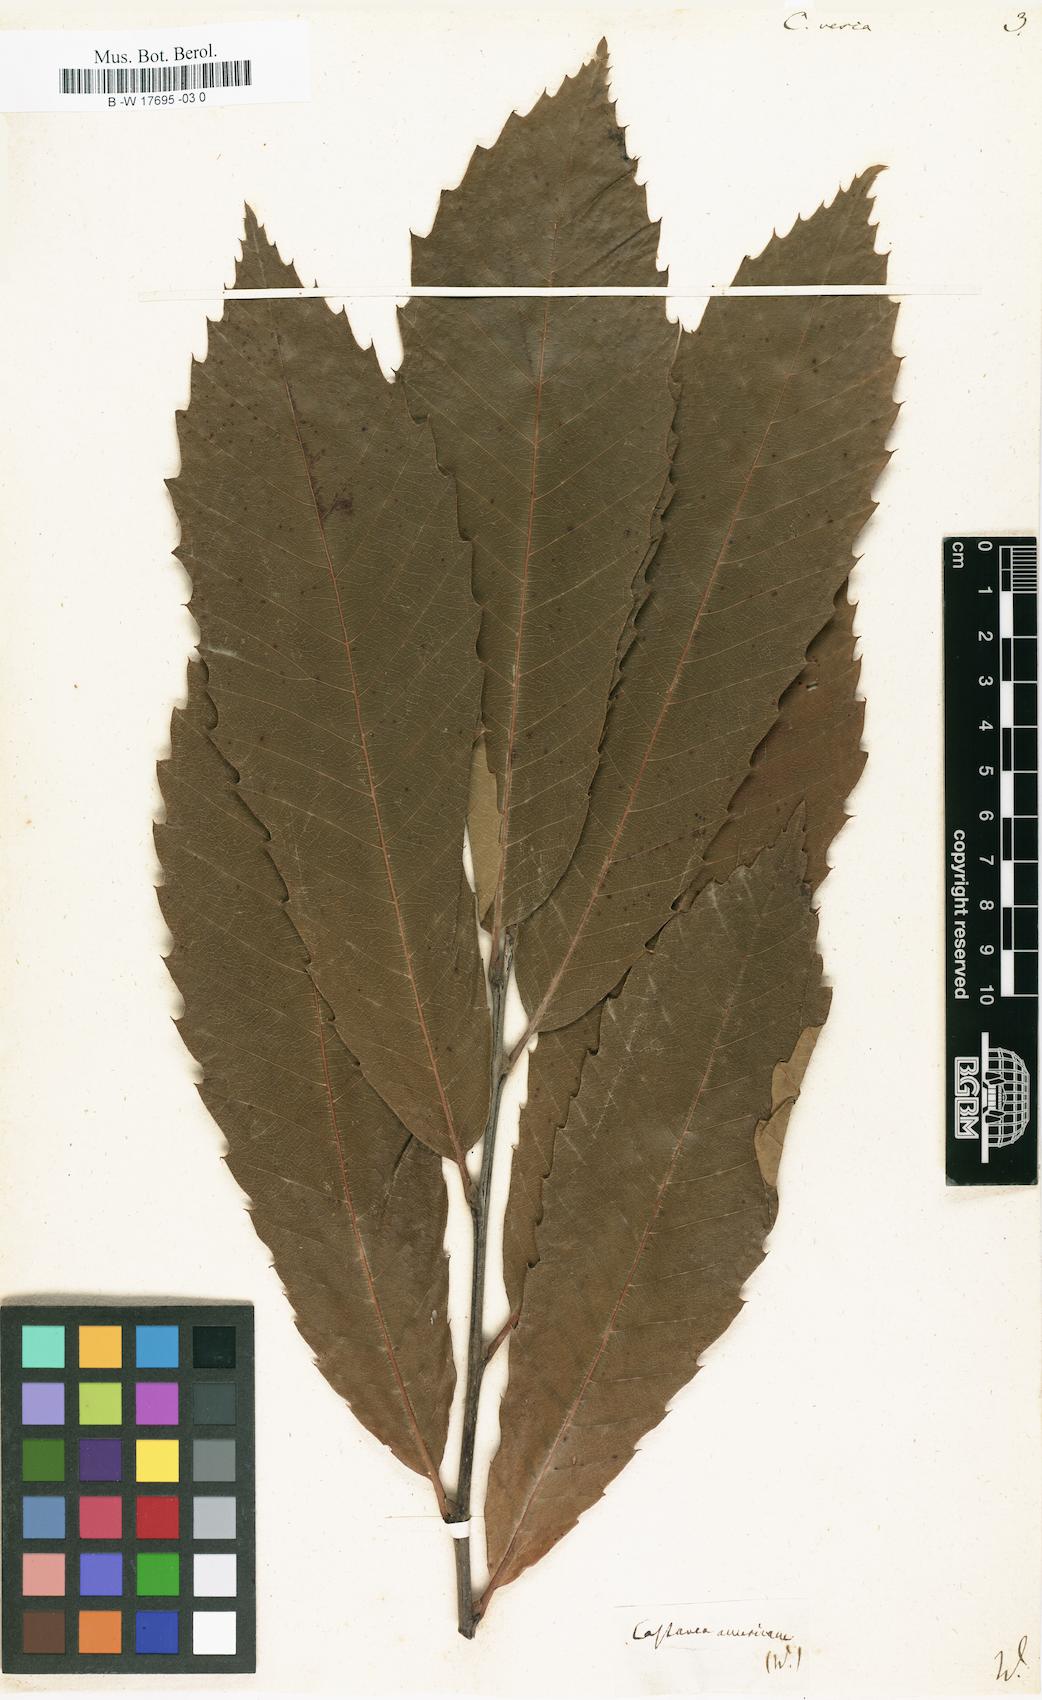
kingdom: Plantae
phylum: Tracheophyta
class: Magnoliopsida
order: Fagales
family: Fagaceae
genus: Castanea
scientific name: Castanea sativa
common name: Sweet chestnut
